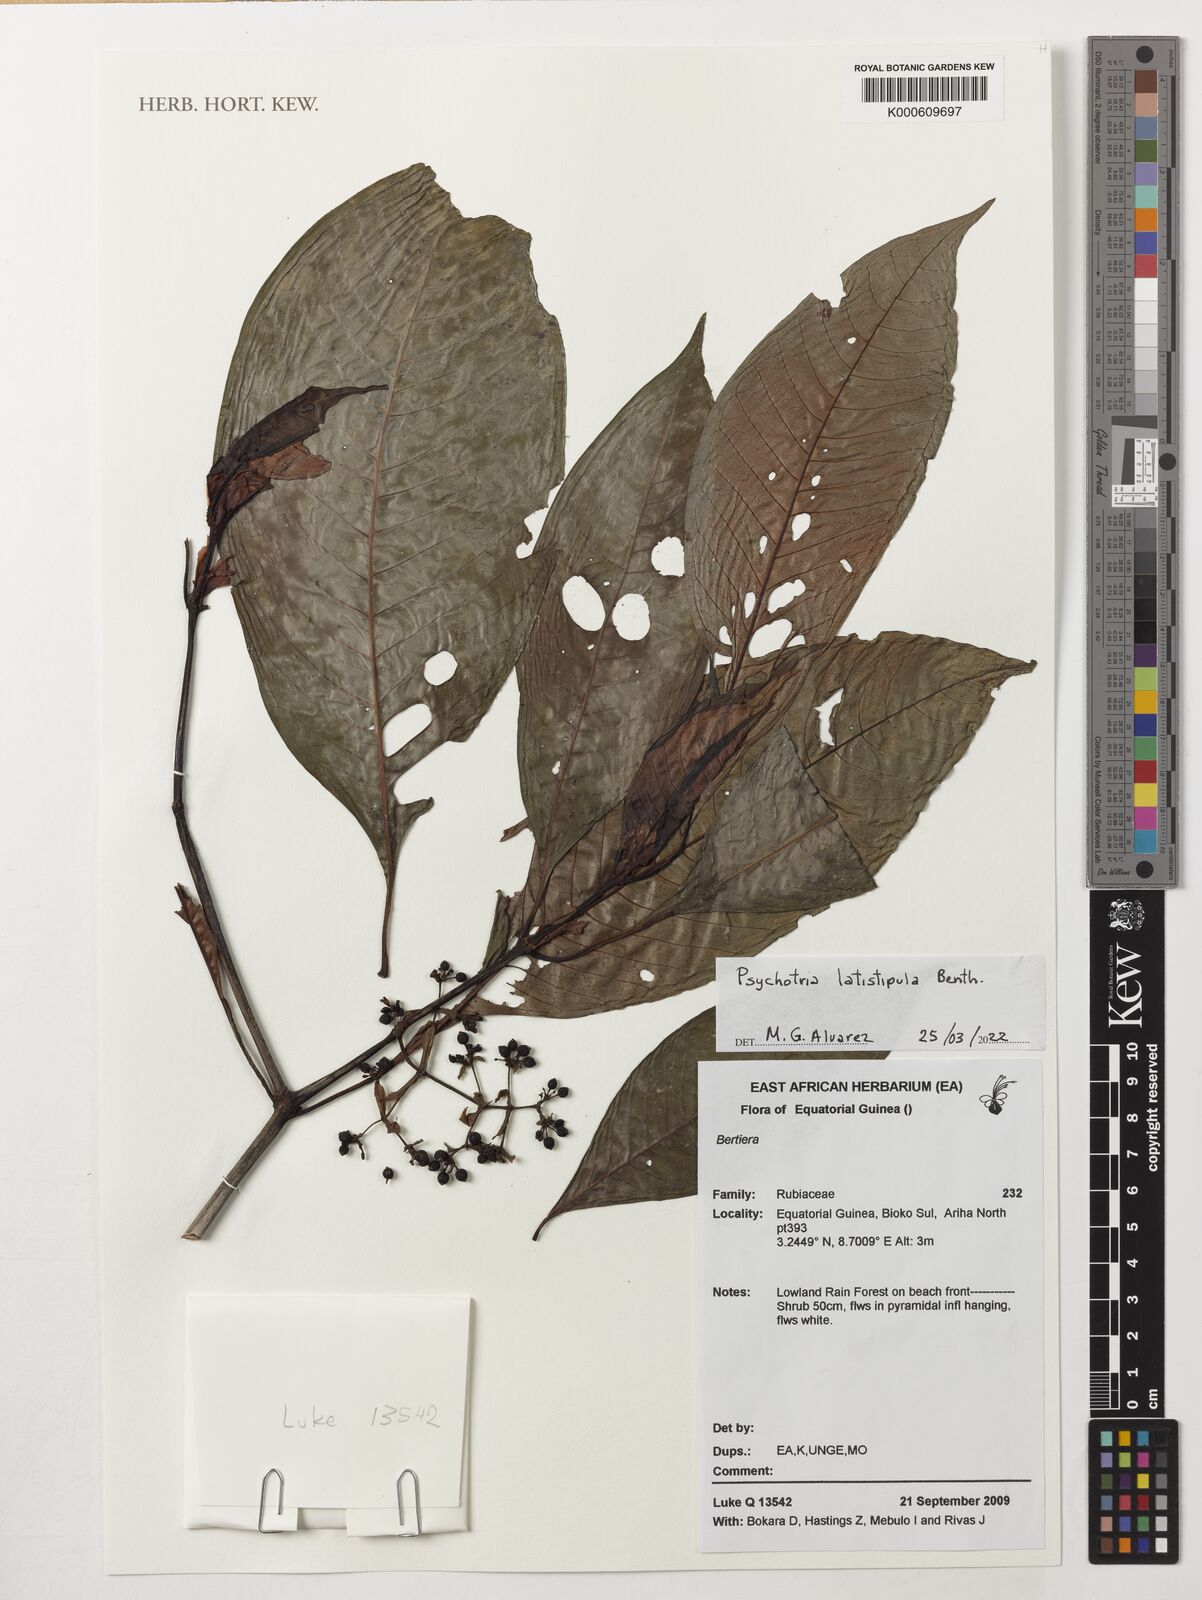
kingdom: Plantae
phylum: Tracheophyta
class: Magnoliopsida
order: Gentianales
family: Rubiaceae
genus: Psychotria
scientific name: Psychotria latistipula
